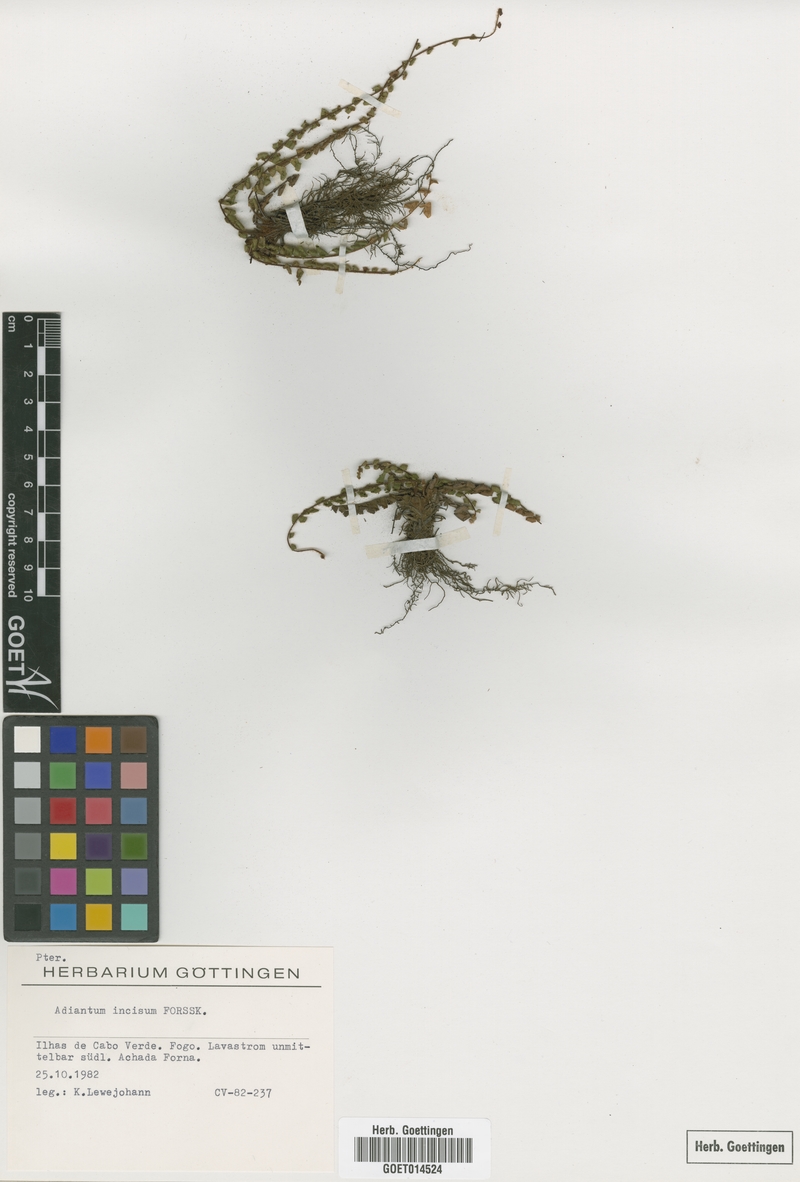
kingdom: Plantae
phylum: Tracheophyta
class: Polypodiopsida
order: Polypodiales
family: Pteridaceae
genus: Adiantum
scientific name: Adiantum incisum
